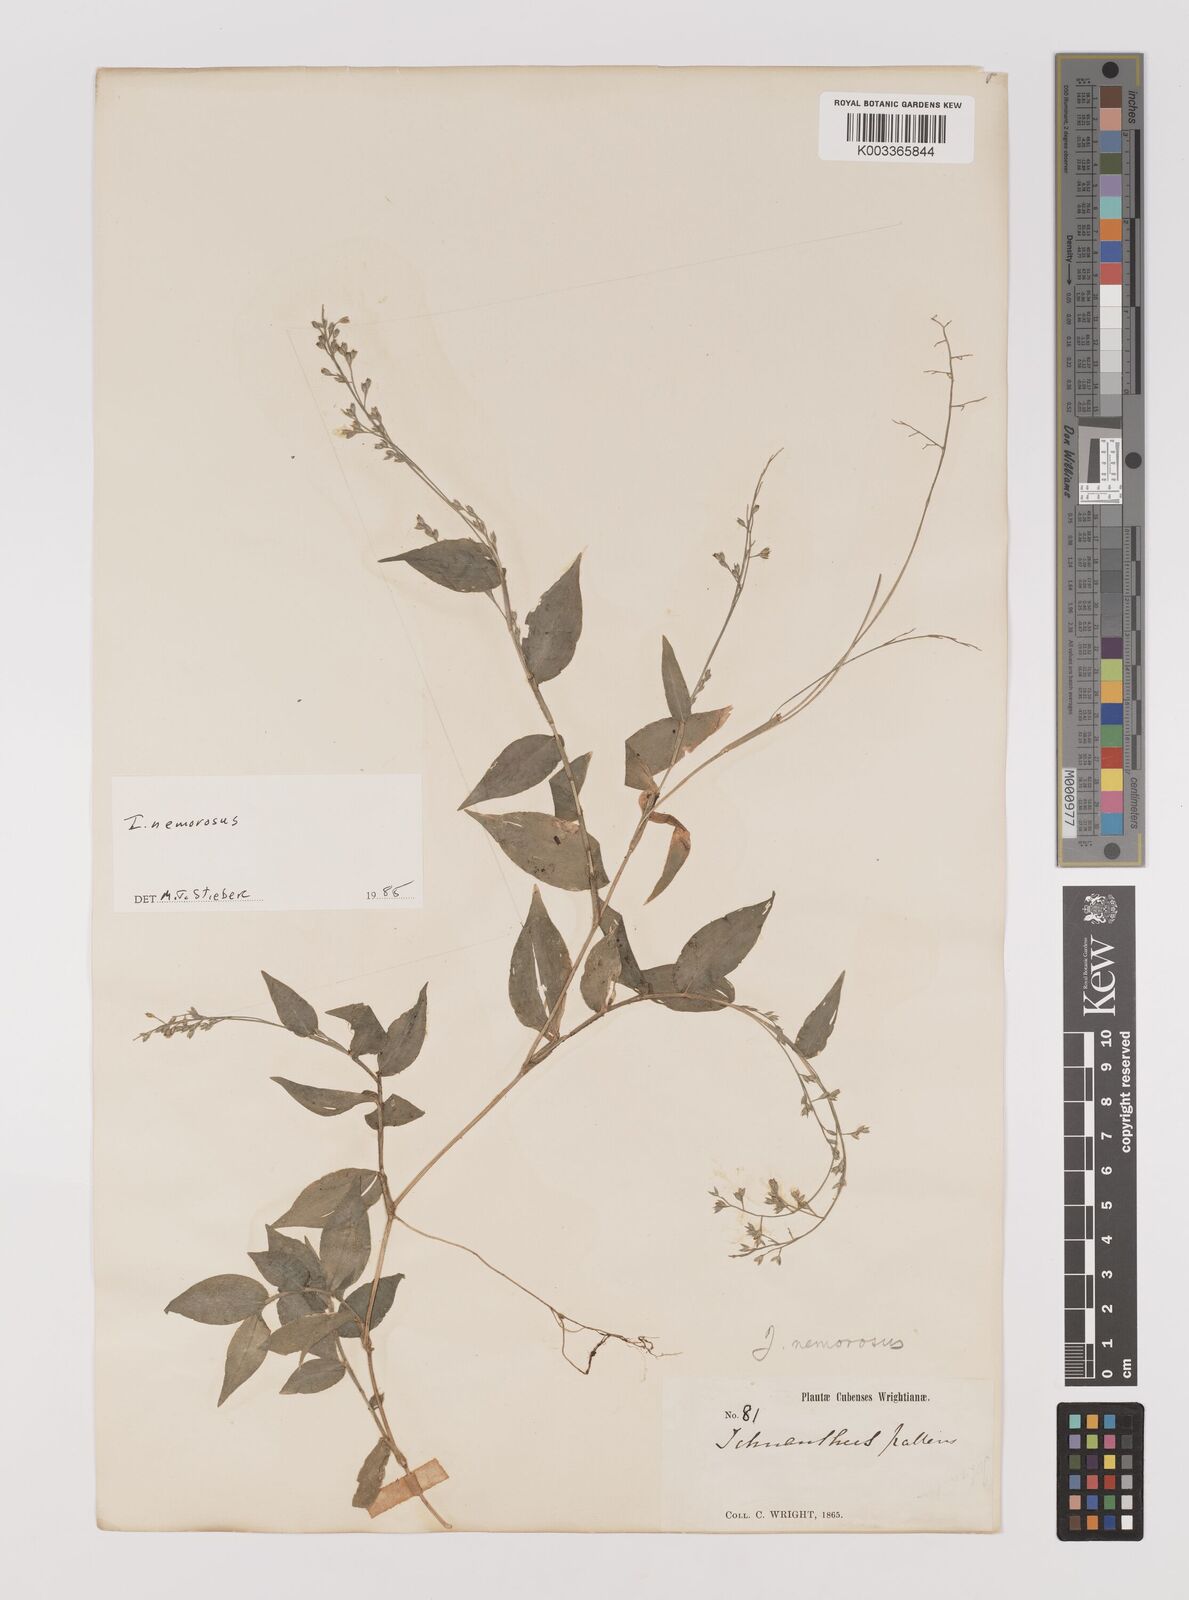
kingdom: Plantae
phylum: Tracheophyta
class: Liliopsida
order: Poales
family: Poaceae
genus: Ichnanthus
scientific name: Ichnanthus nemorosus
